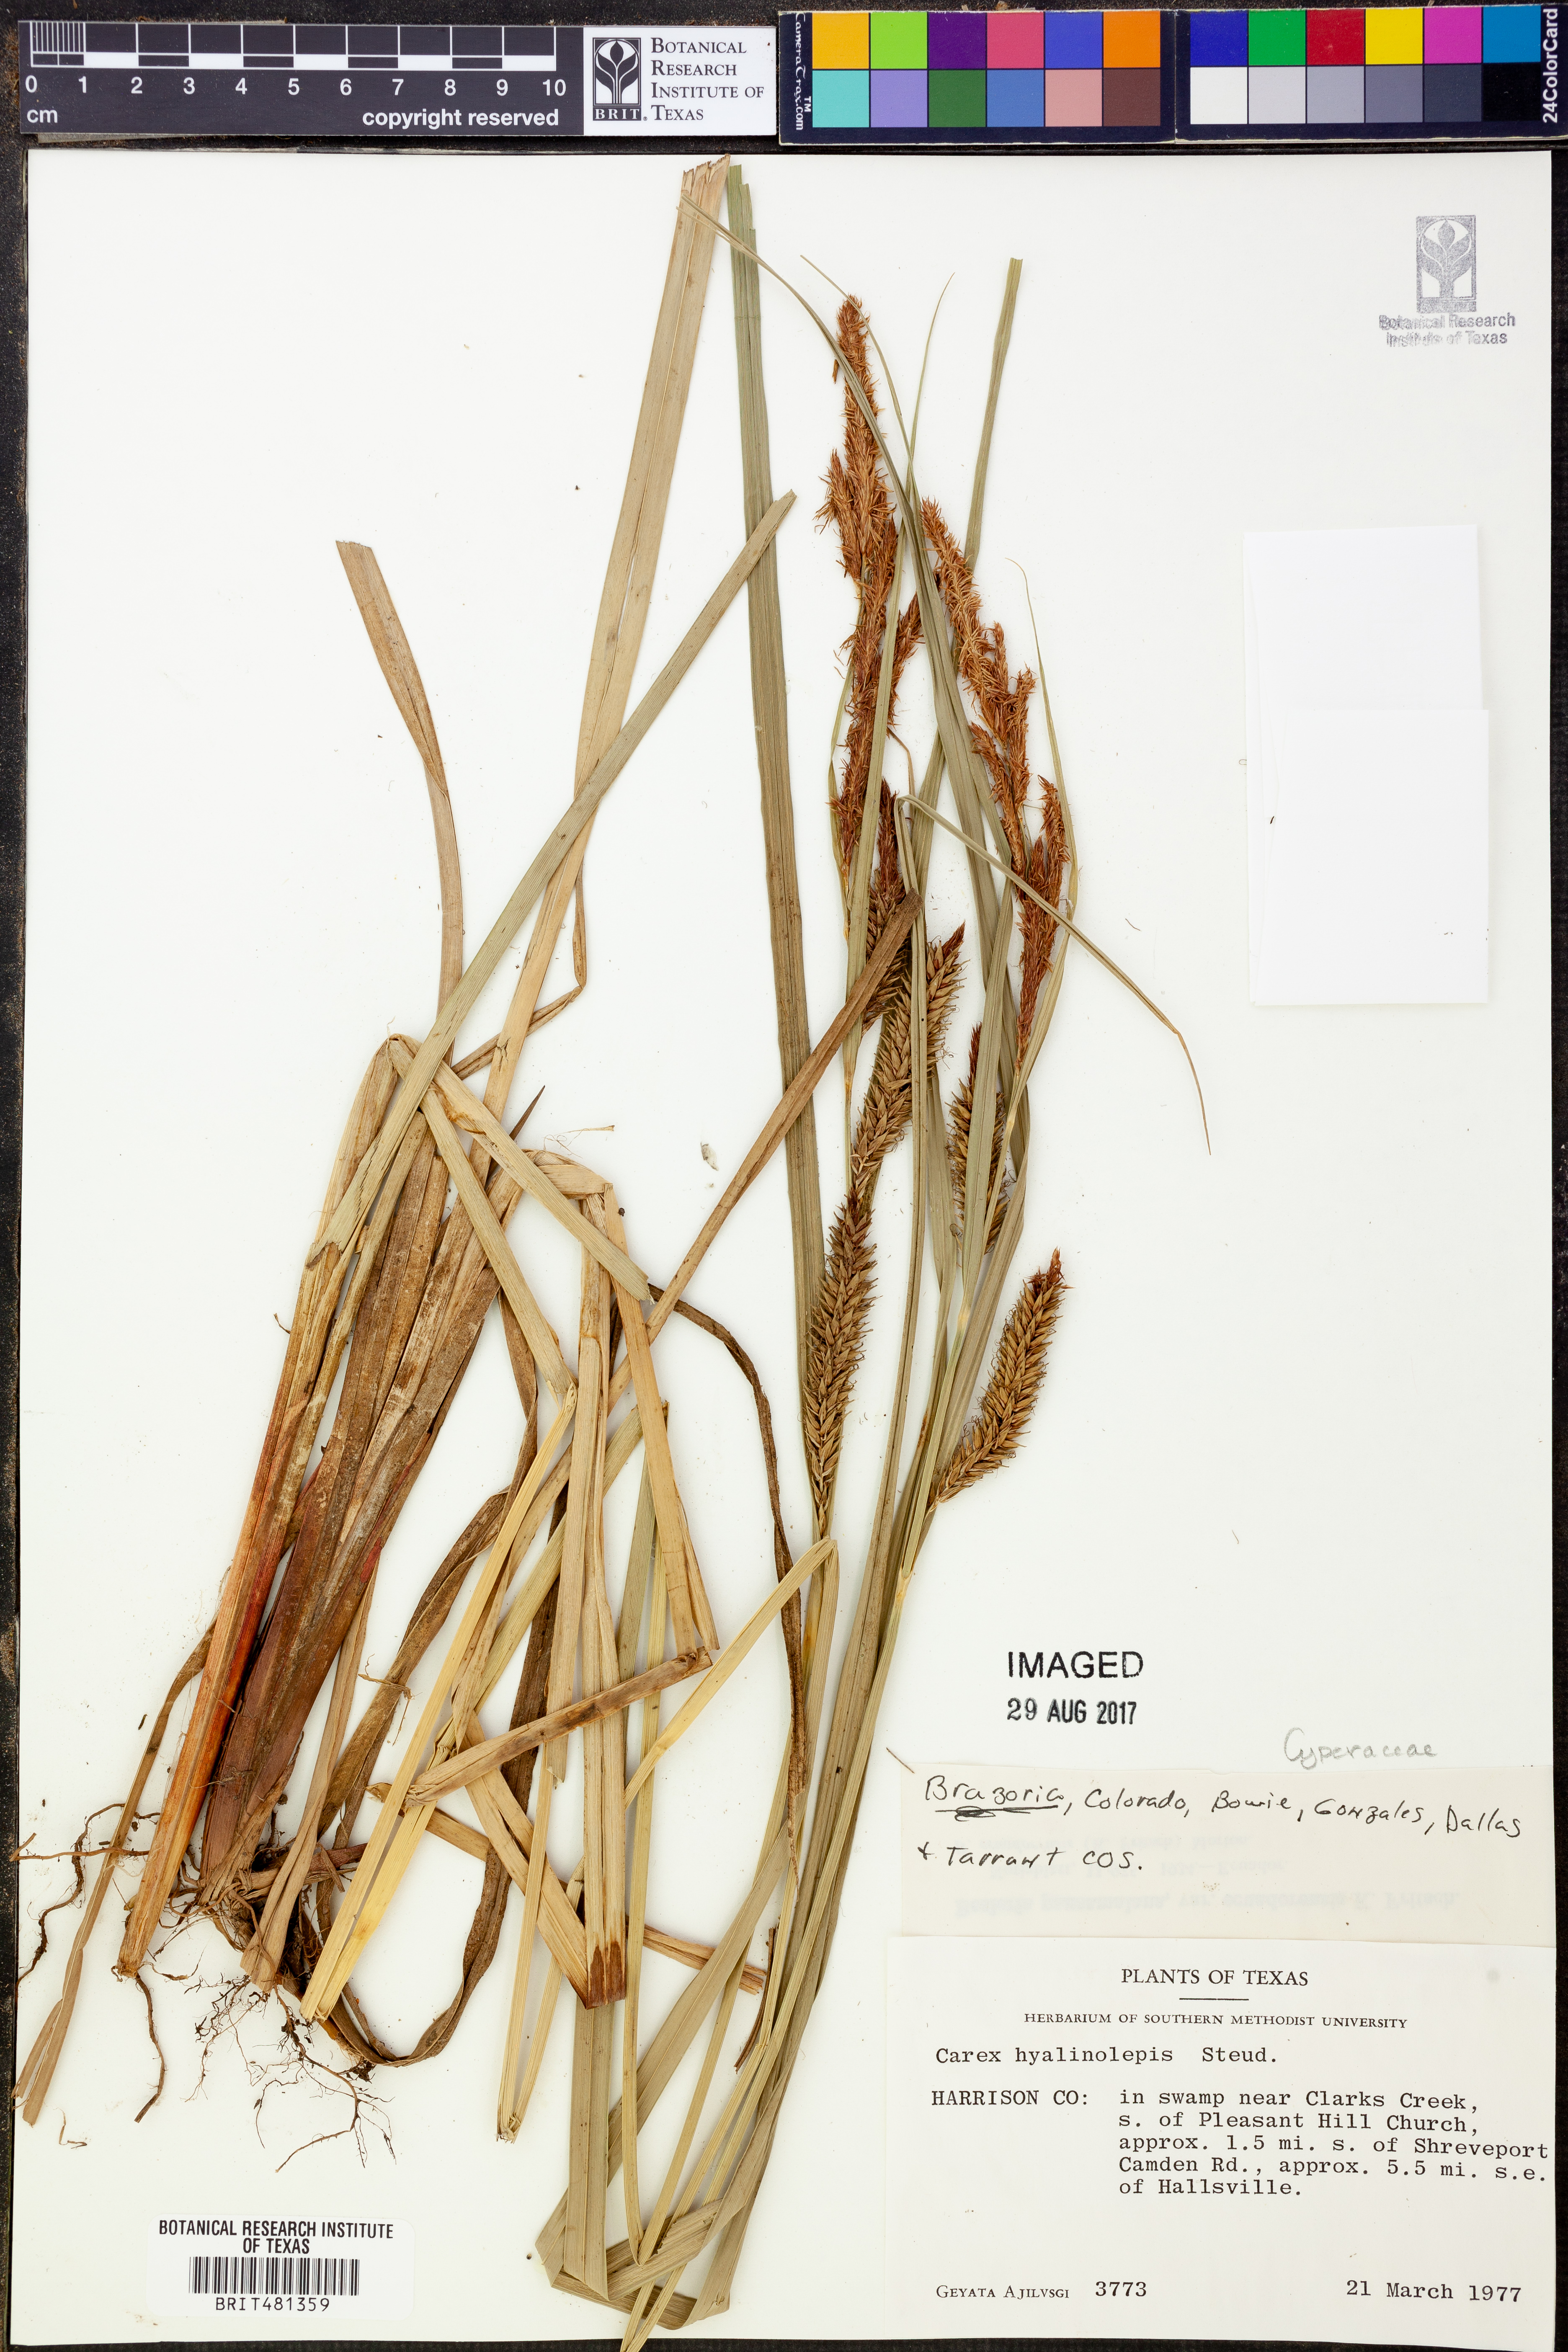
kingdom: Plantae
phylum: Tracheophyta
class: Liliopsida
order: Poales
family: Cyperaceae
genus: Carex
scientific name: Carex hyalinolepis
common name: Shoreline sedge
